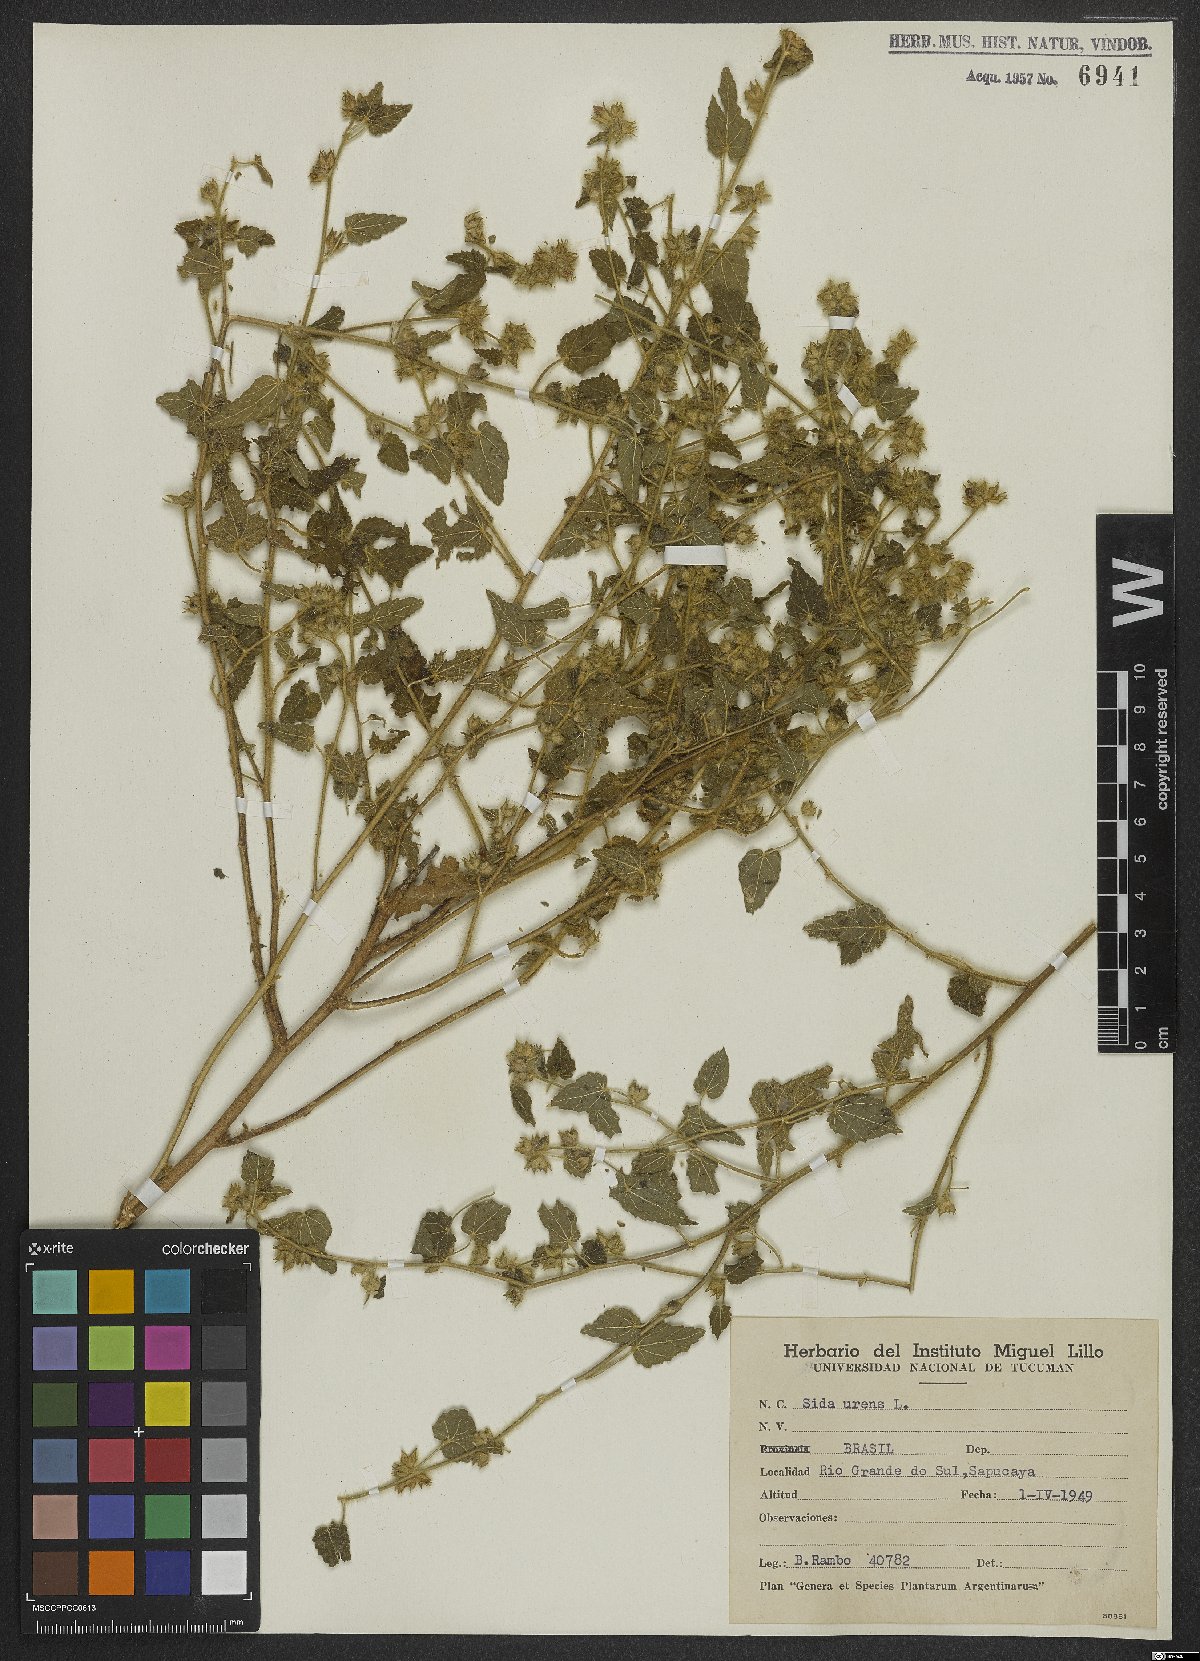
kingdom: Plantae
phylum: Tracheophyta
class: Magnoliopsida
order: Malvales
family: Malvaceae
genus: Sida
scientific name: Sida urens
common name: Tropical fanpetals
